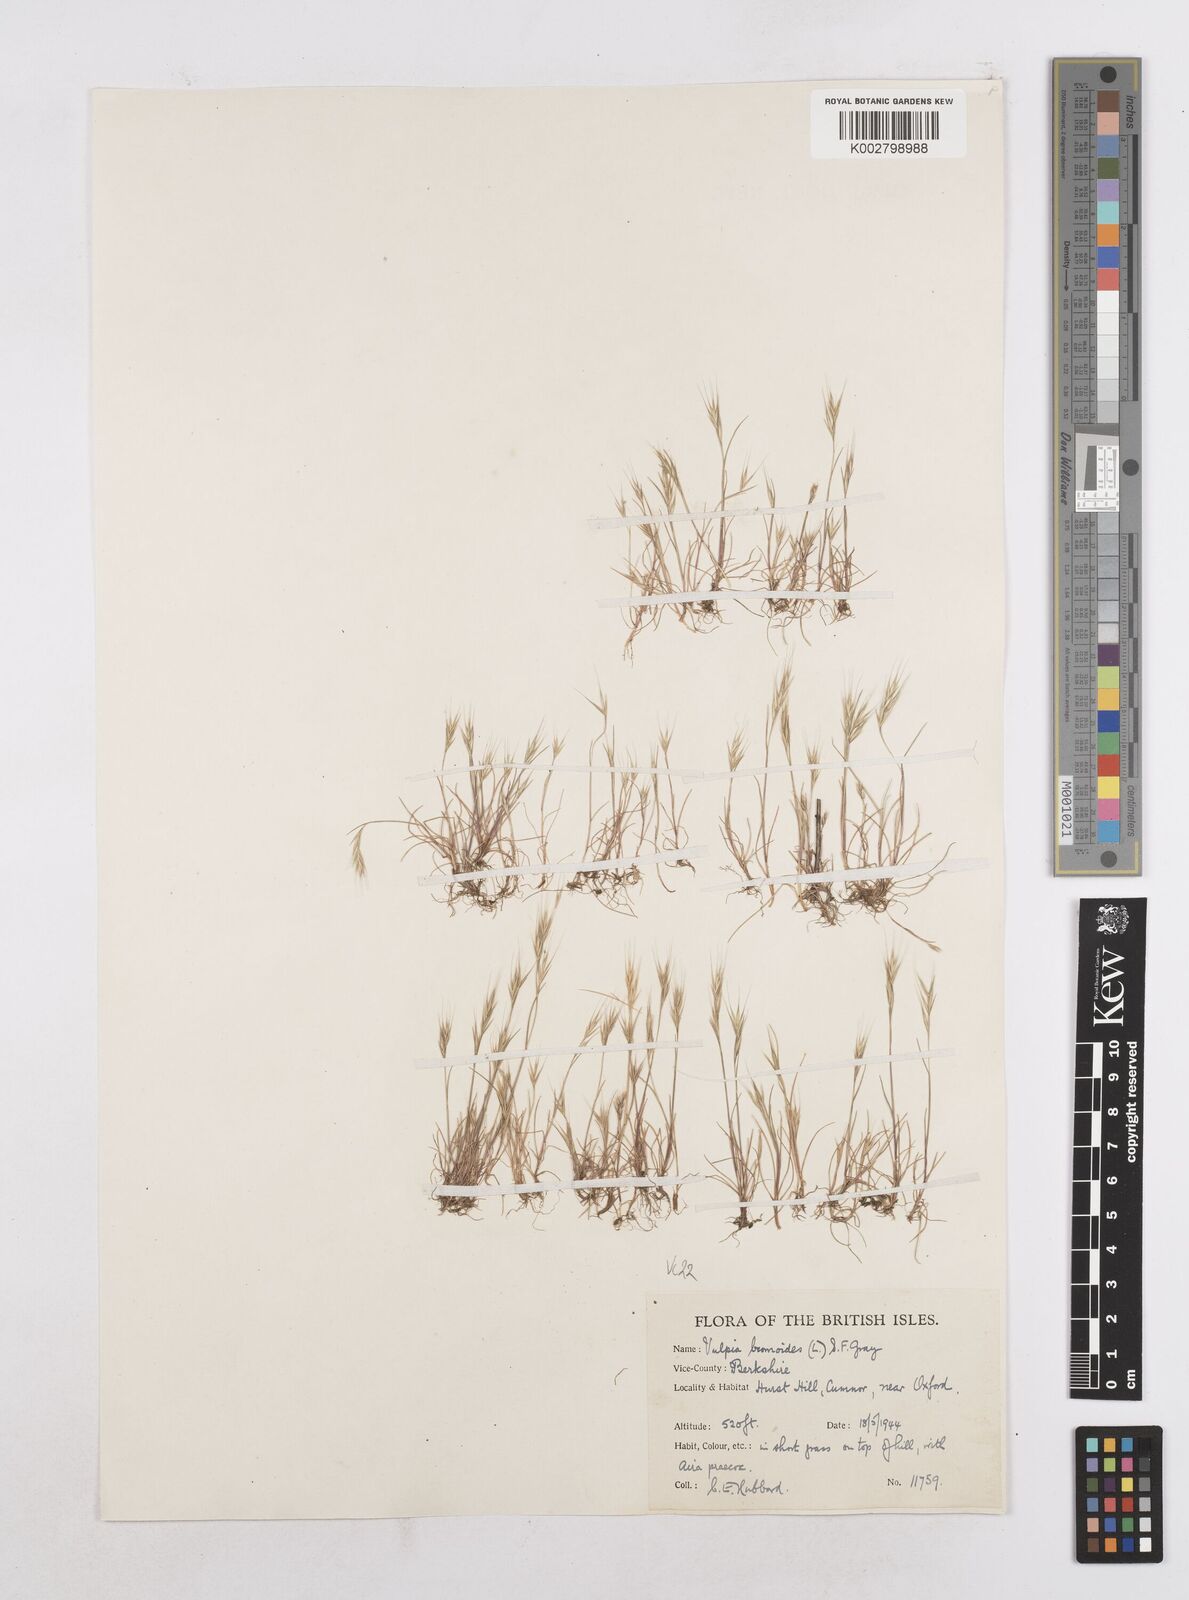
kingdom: Plantae
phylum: Tracheophyta
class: Liliopsida
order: Poales
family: Poaceae
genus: Festuca
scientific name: Festuca bromoides
